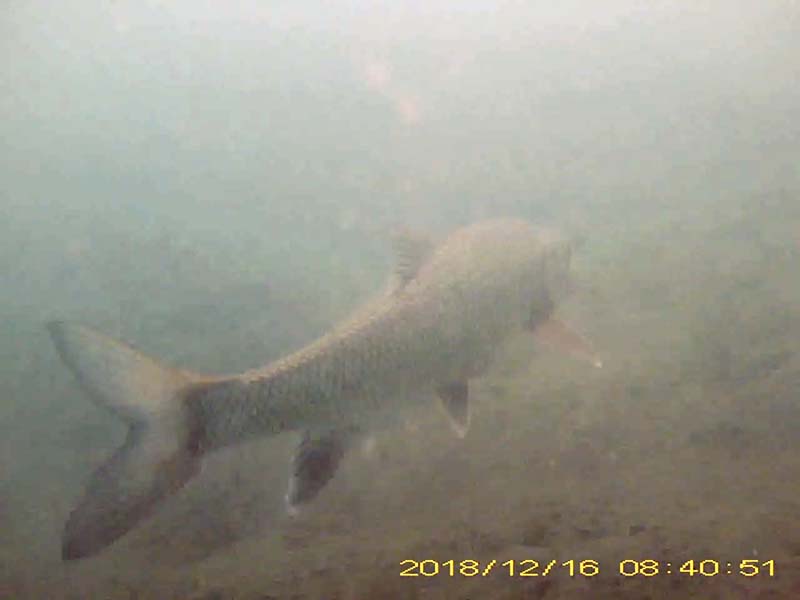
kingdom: Animalia
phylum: Chordata
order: Cypriniformes
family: Cyprinidae
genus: Hemibarbus
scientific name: Hemibarbus labeo
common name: ニゴイ
